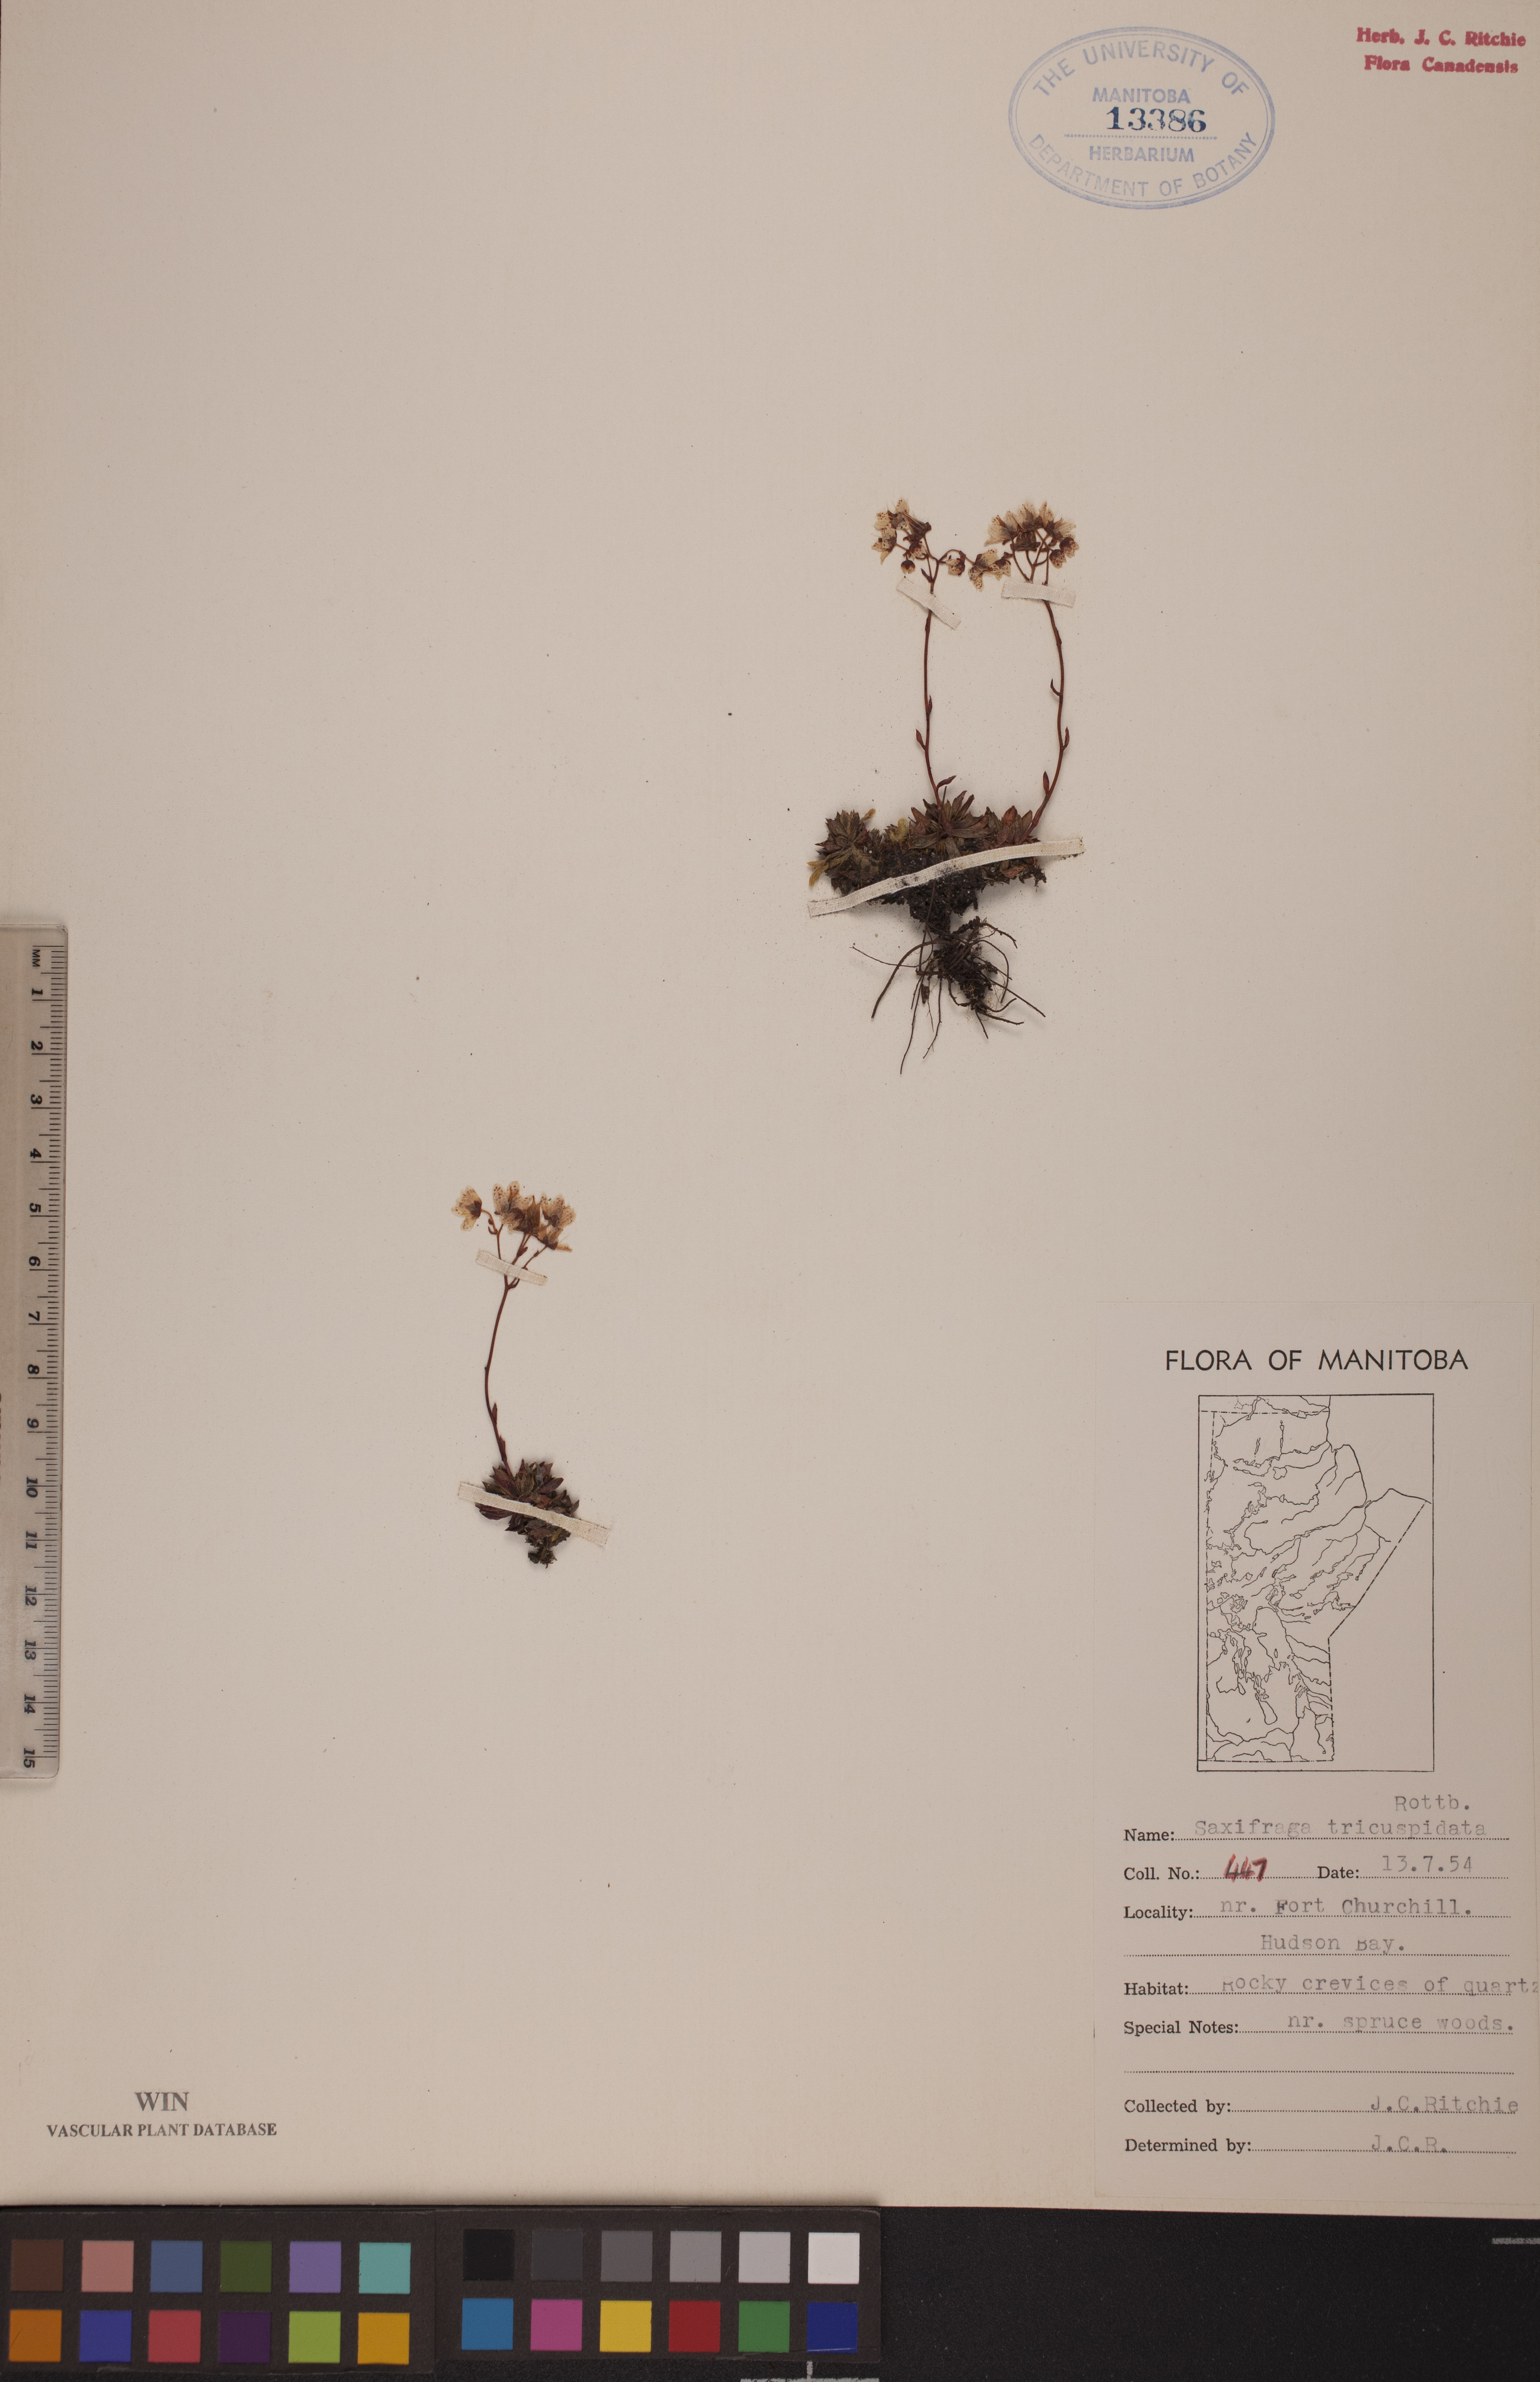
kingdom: Plantae
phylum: Tracheophyta
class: Magnoliopsida
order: Saxifragales
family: Saxifragaceae
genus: Saxifraga
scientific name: Saxifraga tricuspidata
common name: Prickly saxifrage
